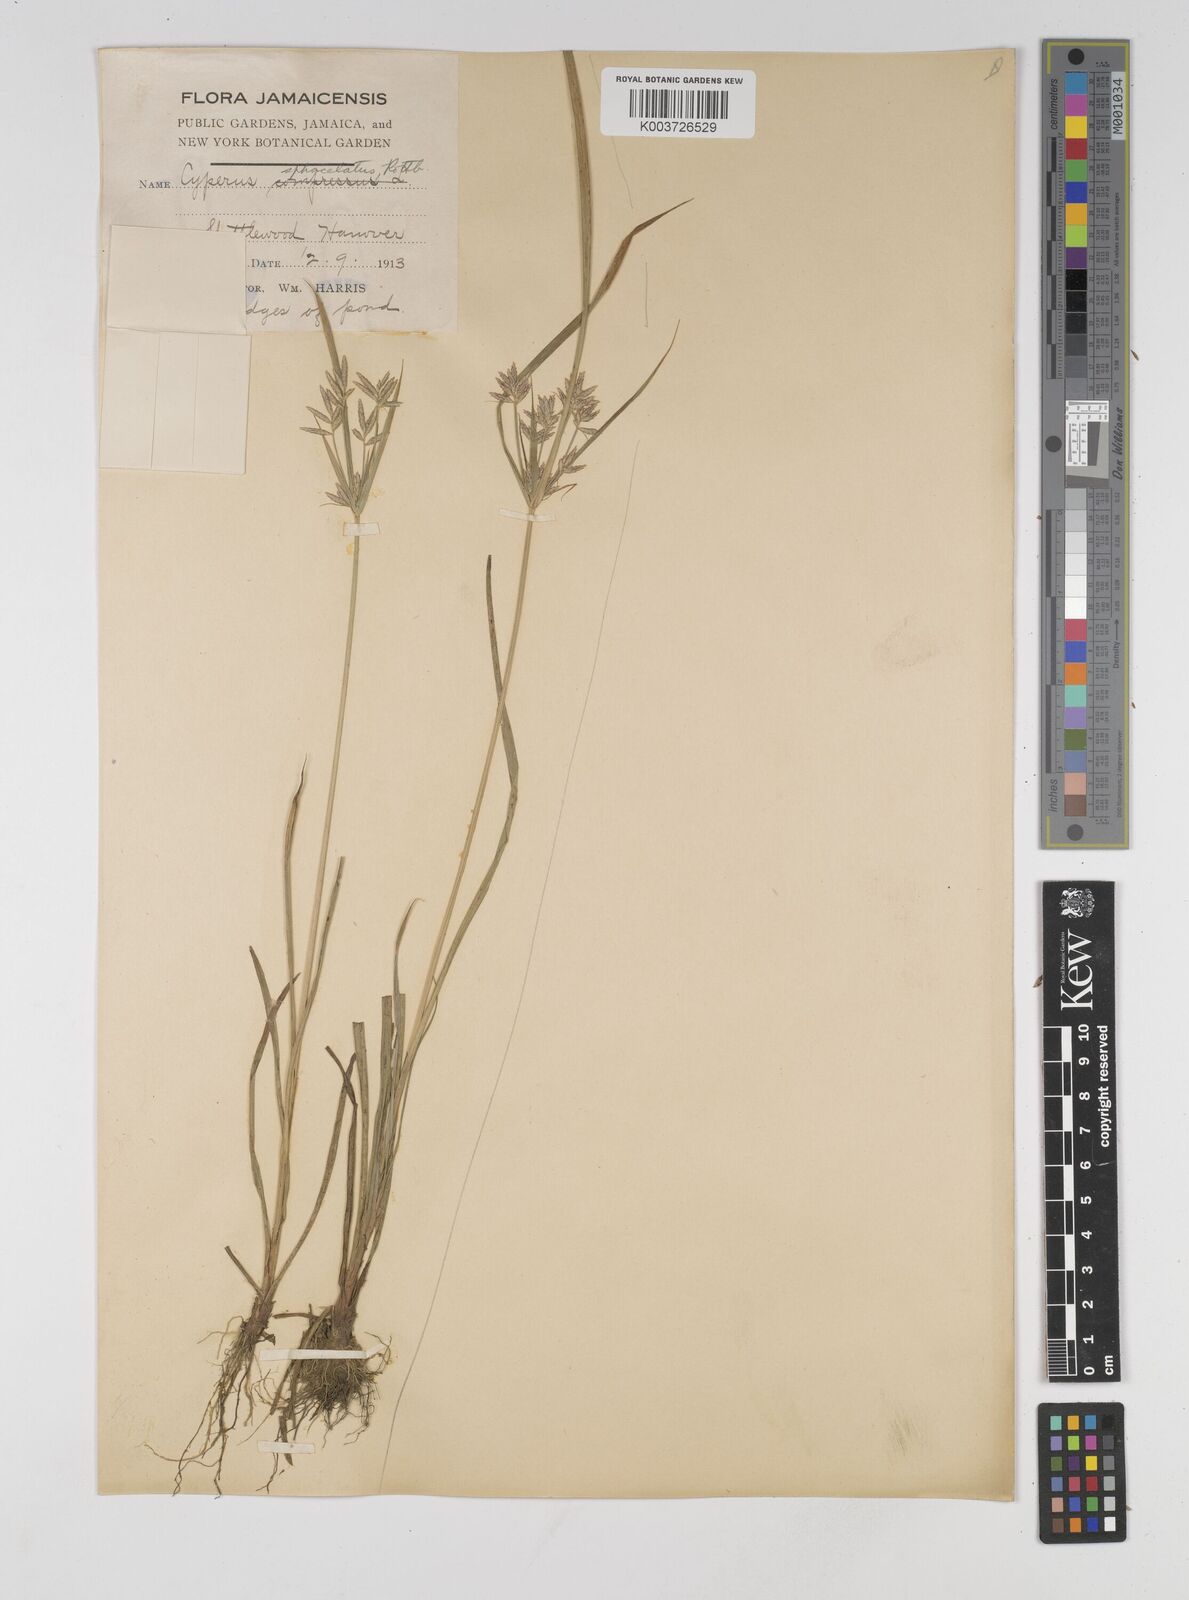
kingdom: Plantae
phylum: Tracheophyta
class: Liliopsida
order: Poales
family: Cyperaceae
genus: Cyperus
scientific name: Cyperus sphacelatus
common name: Roadside flatsedge
